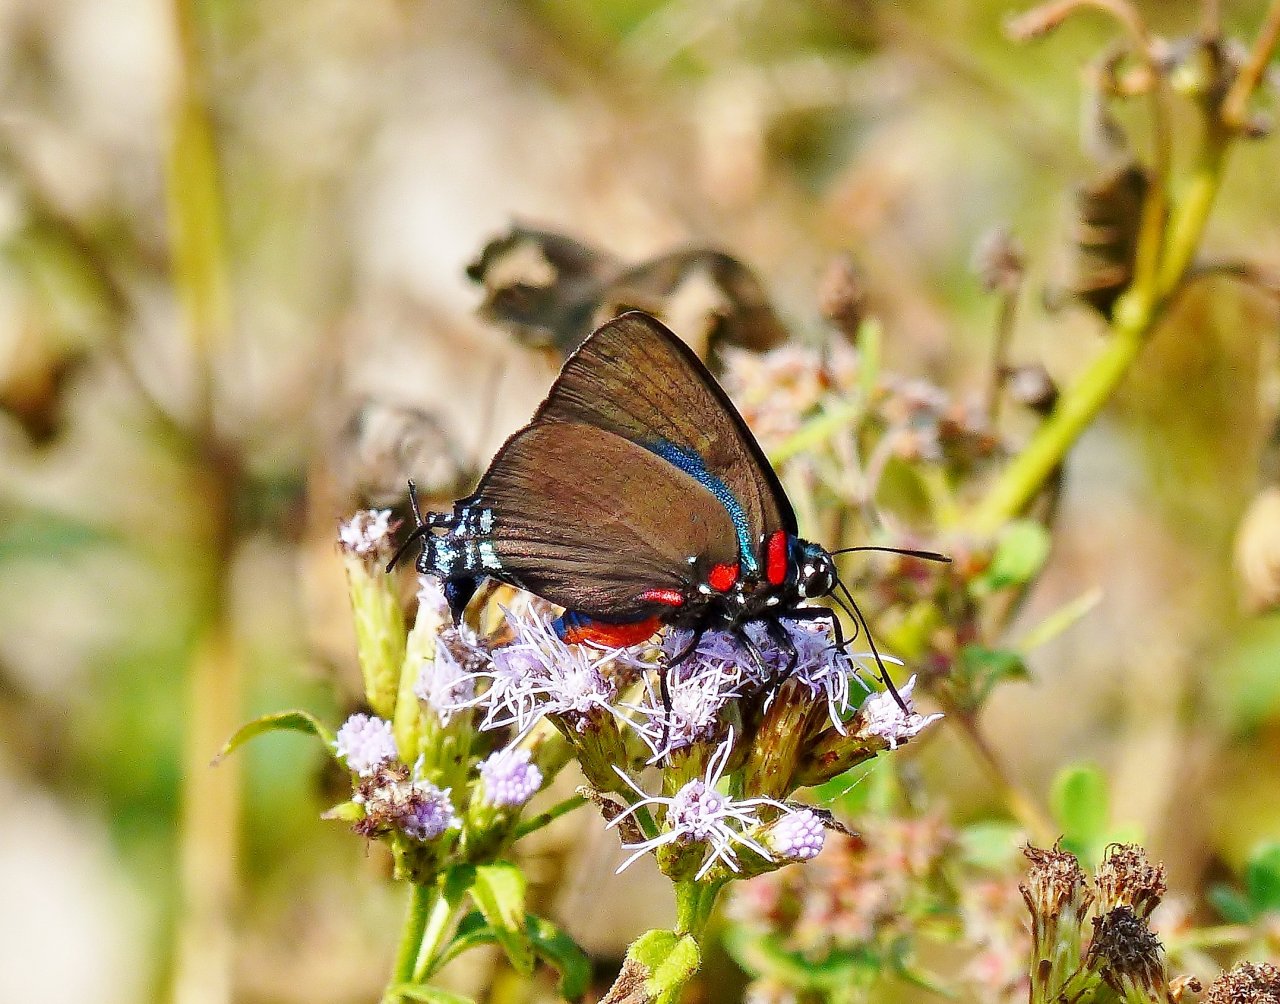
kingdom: Animalia
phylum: Arthropoda
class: Insecta
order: Lepidoptera
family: Lycaenidae
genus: Atlides
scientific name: Atlides halesus
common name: Great Purple Hairstreak
